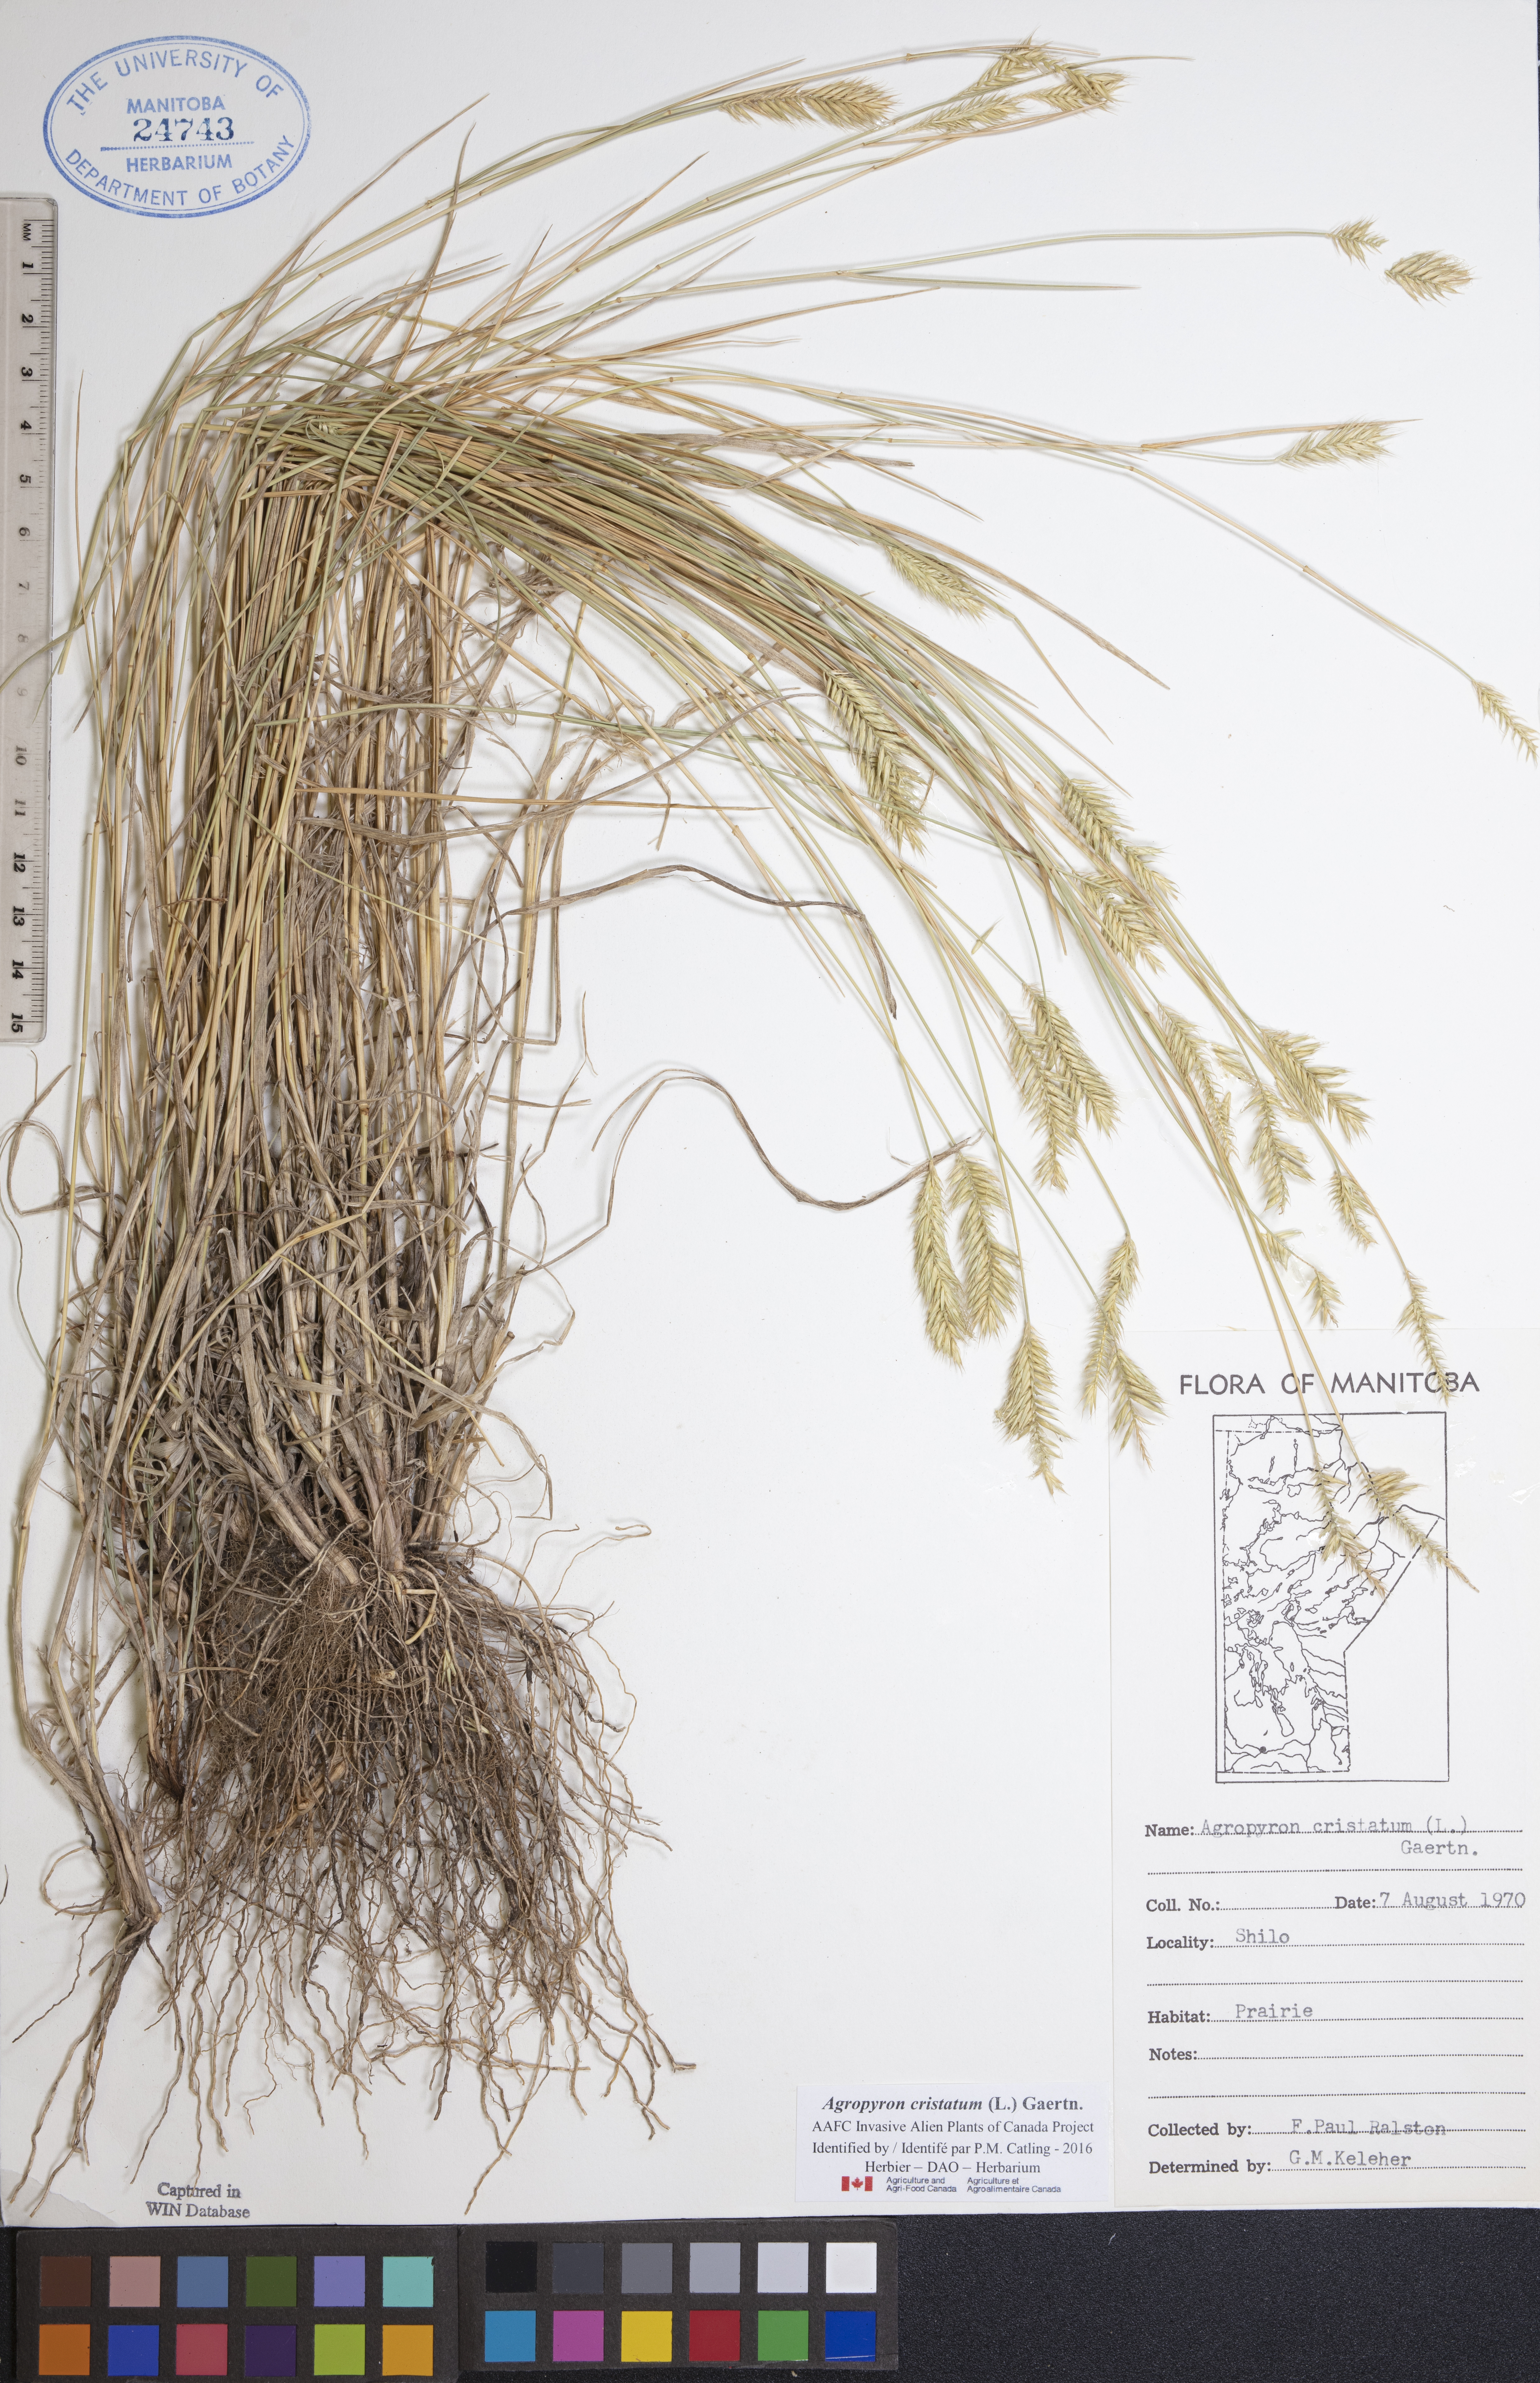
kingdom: Plantae
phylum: Tracheophyta
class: Liliopsida
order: Poales
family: Poaceae
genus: Agropyron
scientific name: Agropyron cristatum
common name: Crested wheatgrass
